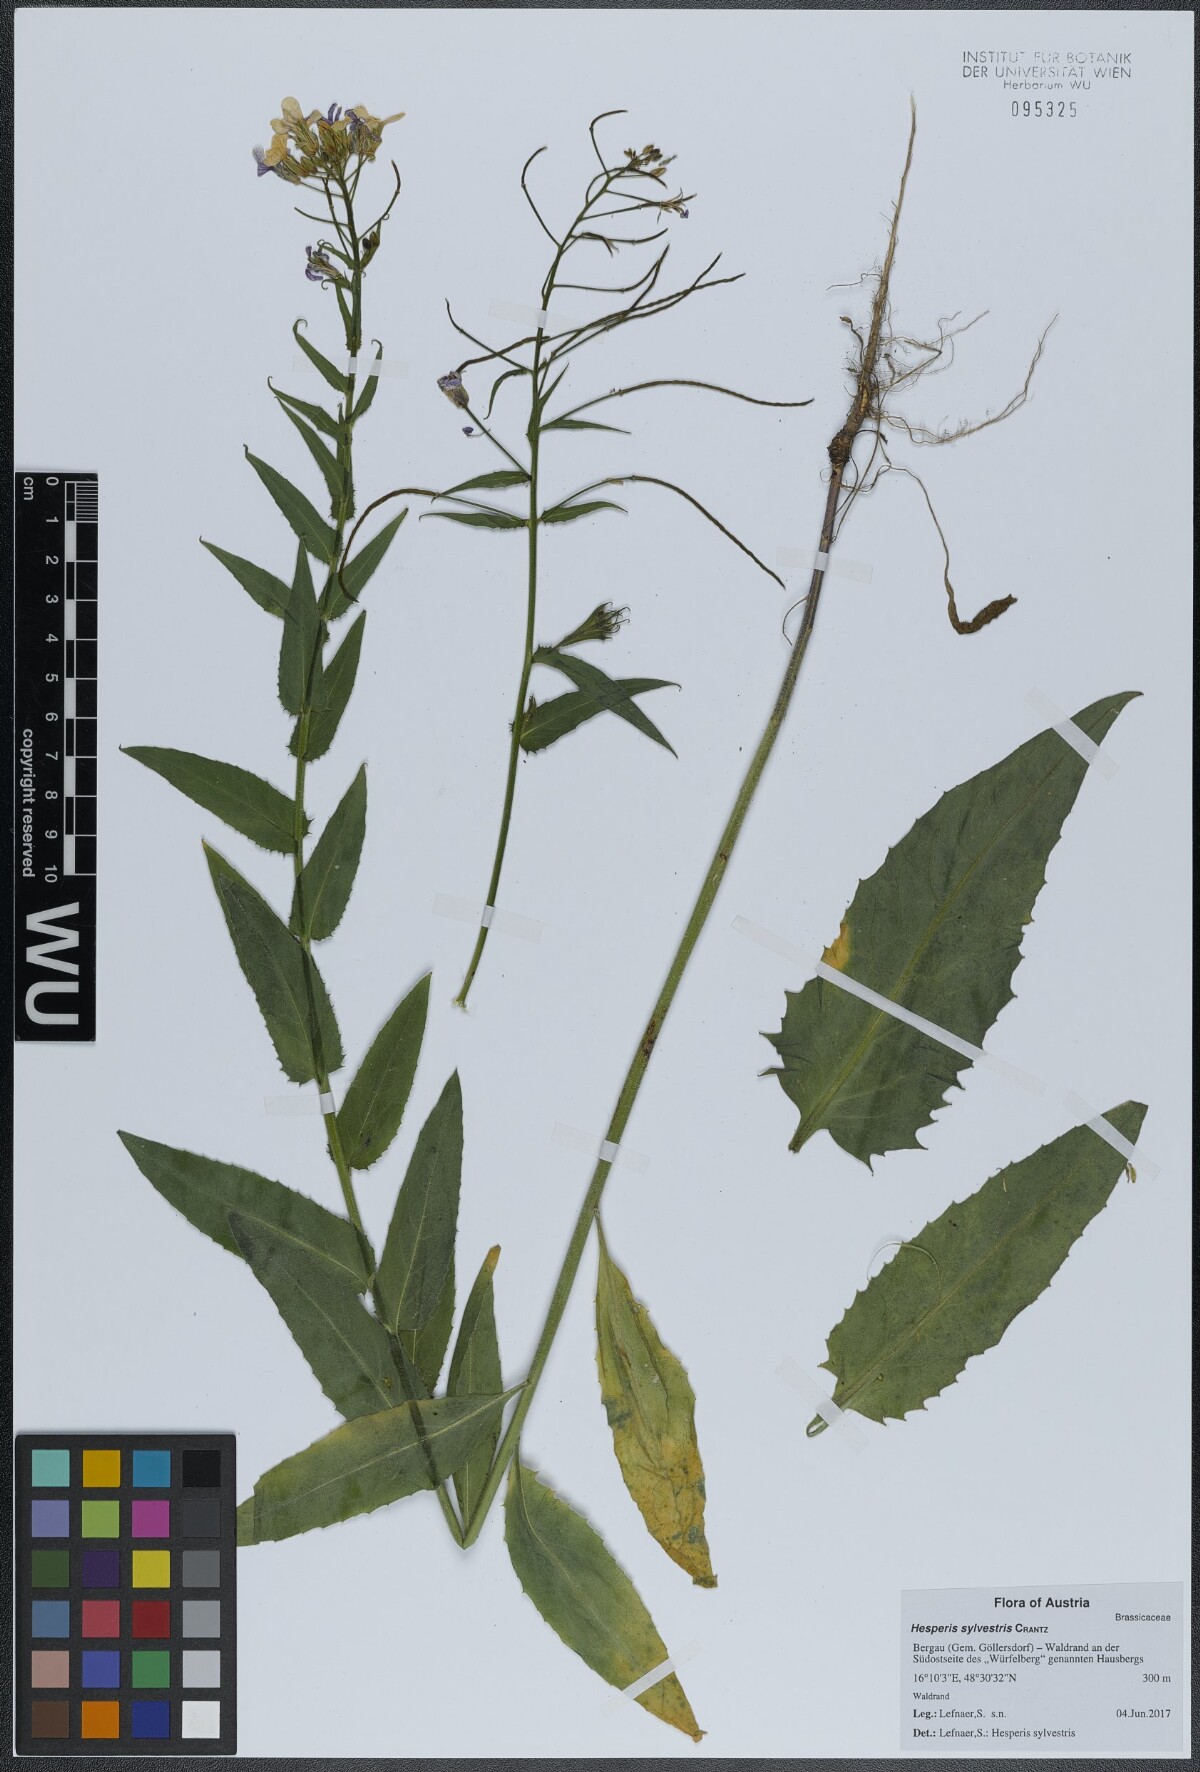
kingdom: Plantae
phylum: Tracheophyta
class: Magnoliopsida
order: Brassicales
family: Brassicaceae
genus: Hesperis
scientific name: Hesperis sylvestris
